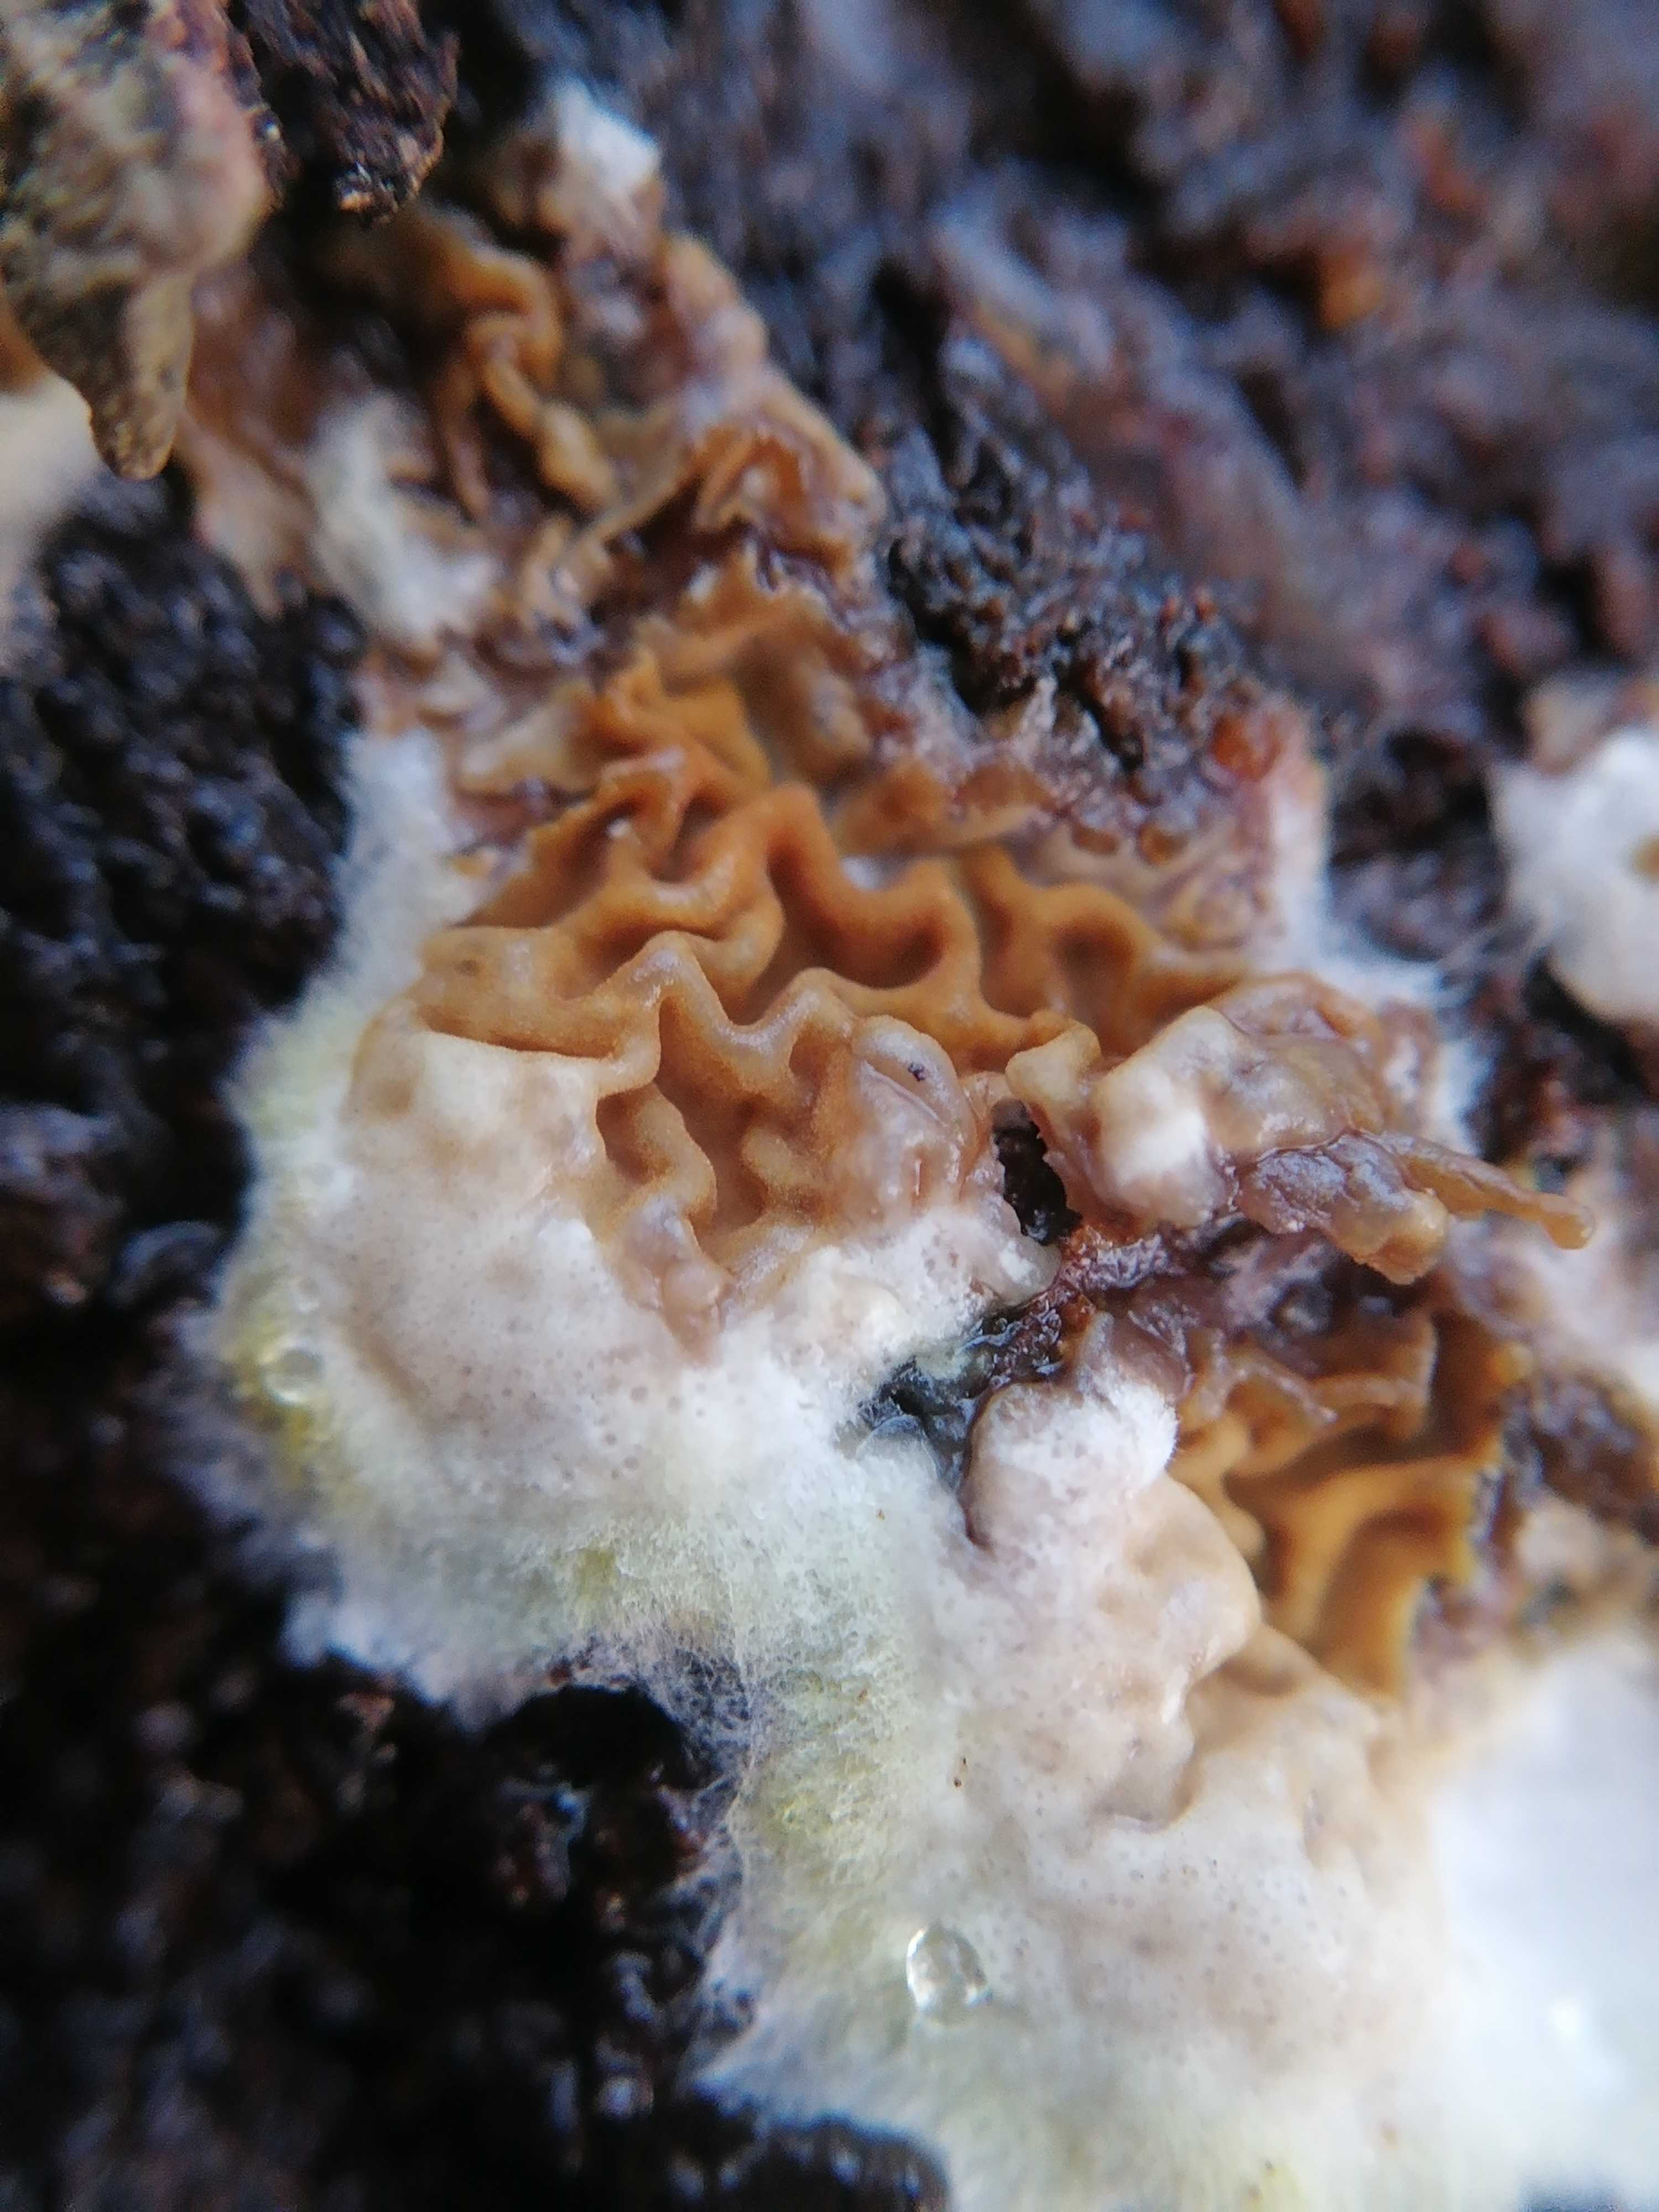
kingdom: Fungi
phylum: Basidiomycota
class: Agaricomycetes
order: Boletales
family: Serpulaceae
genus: Serpula
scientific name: Serpula himantioides
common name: tyndkødet hussvamp
